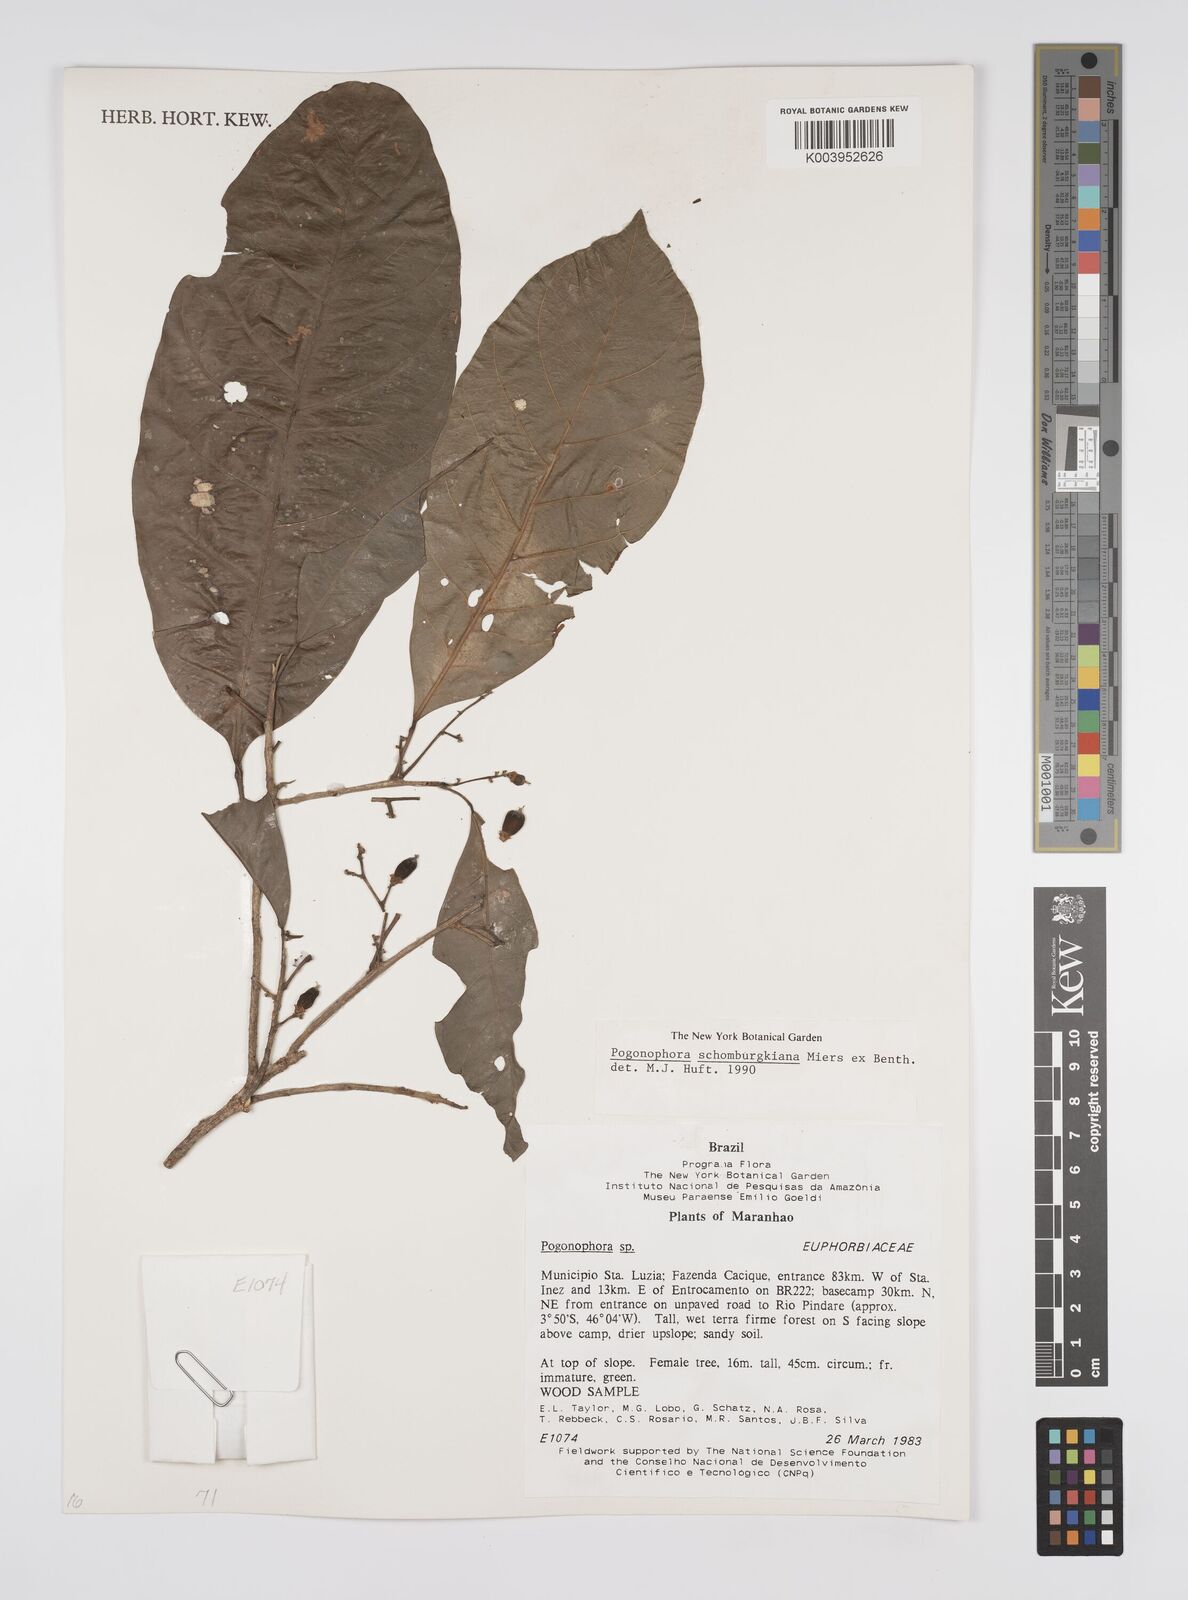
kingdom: Plantae
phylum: Tracheophyta
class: Magnoliopsida
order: Malpighiales
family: Peraceae
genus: Pogonophora
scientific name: Pogonophora schomburgkiana
